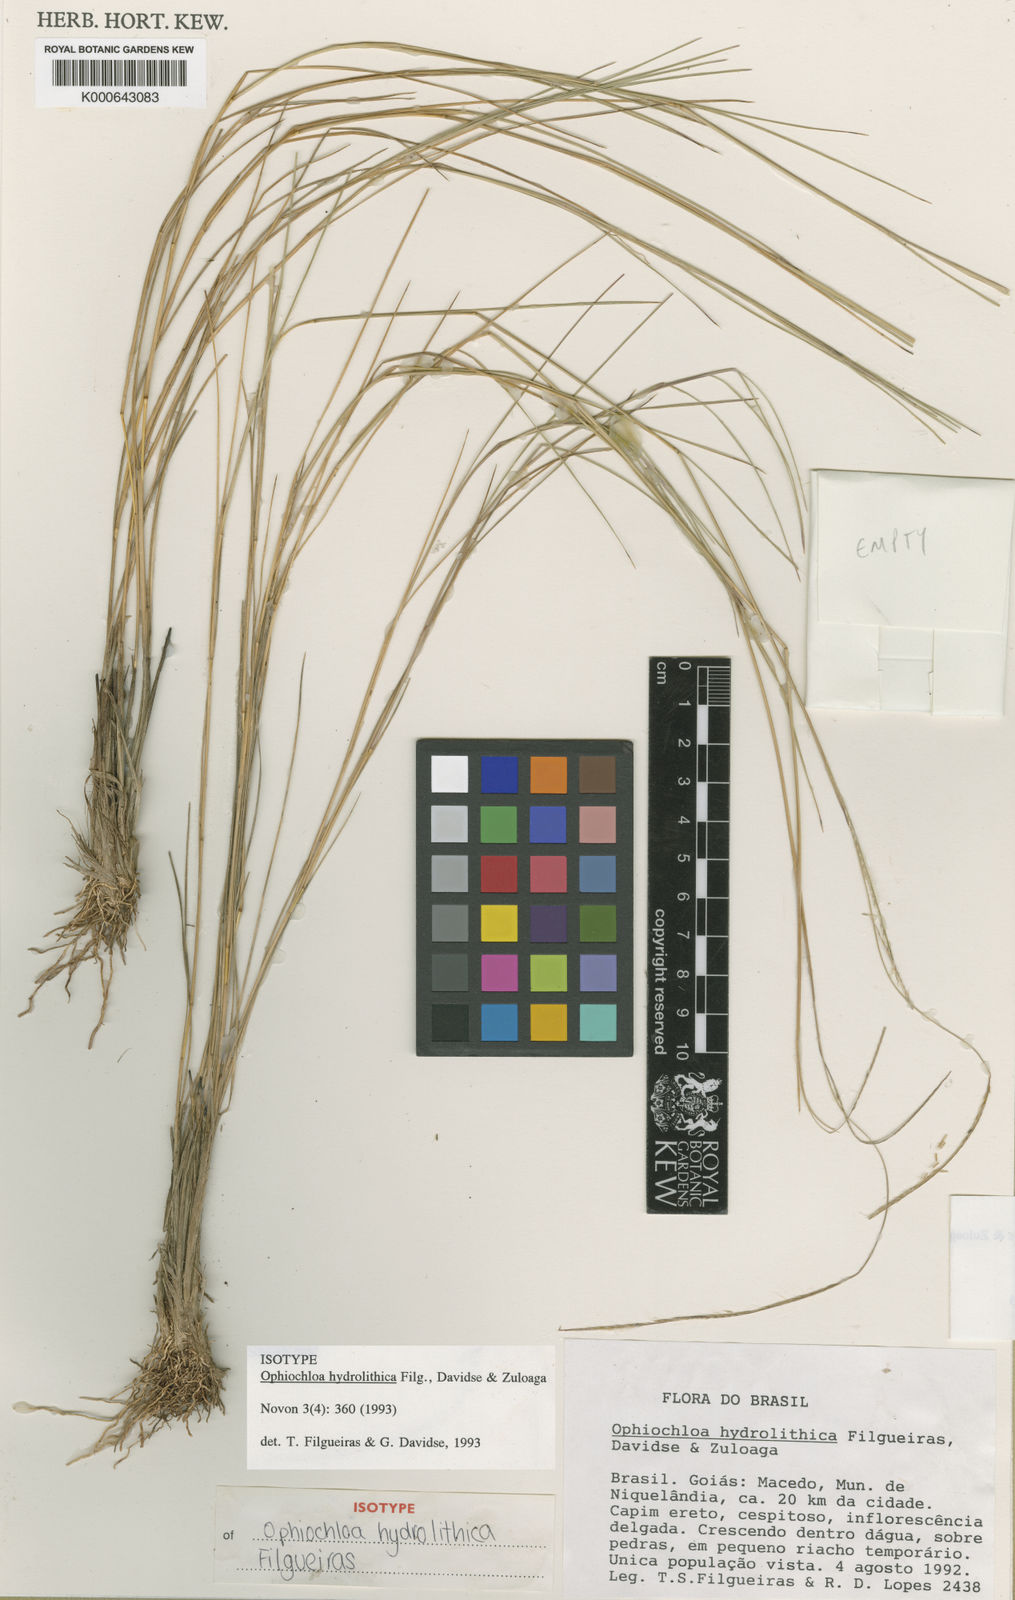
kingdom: Plantae
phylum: Tracheophyta
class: Liliopsida
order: Poales
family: Poaceae
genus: Axonopus
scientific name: Axonopus hydrolithicus
